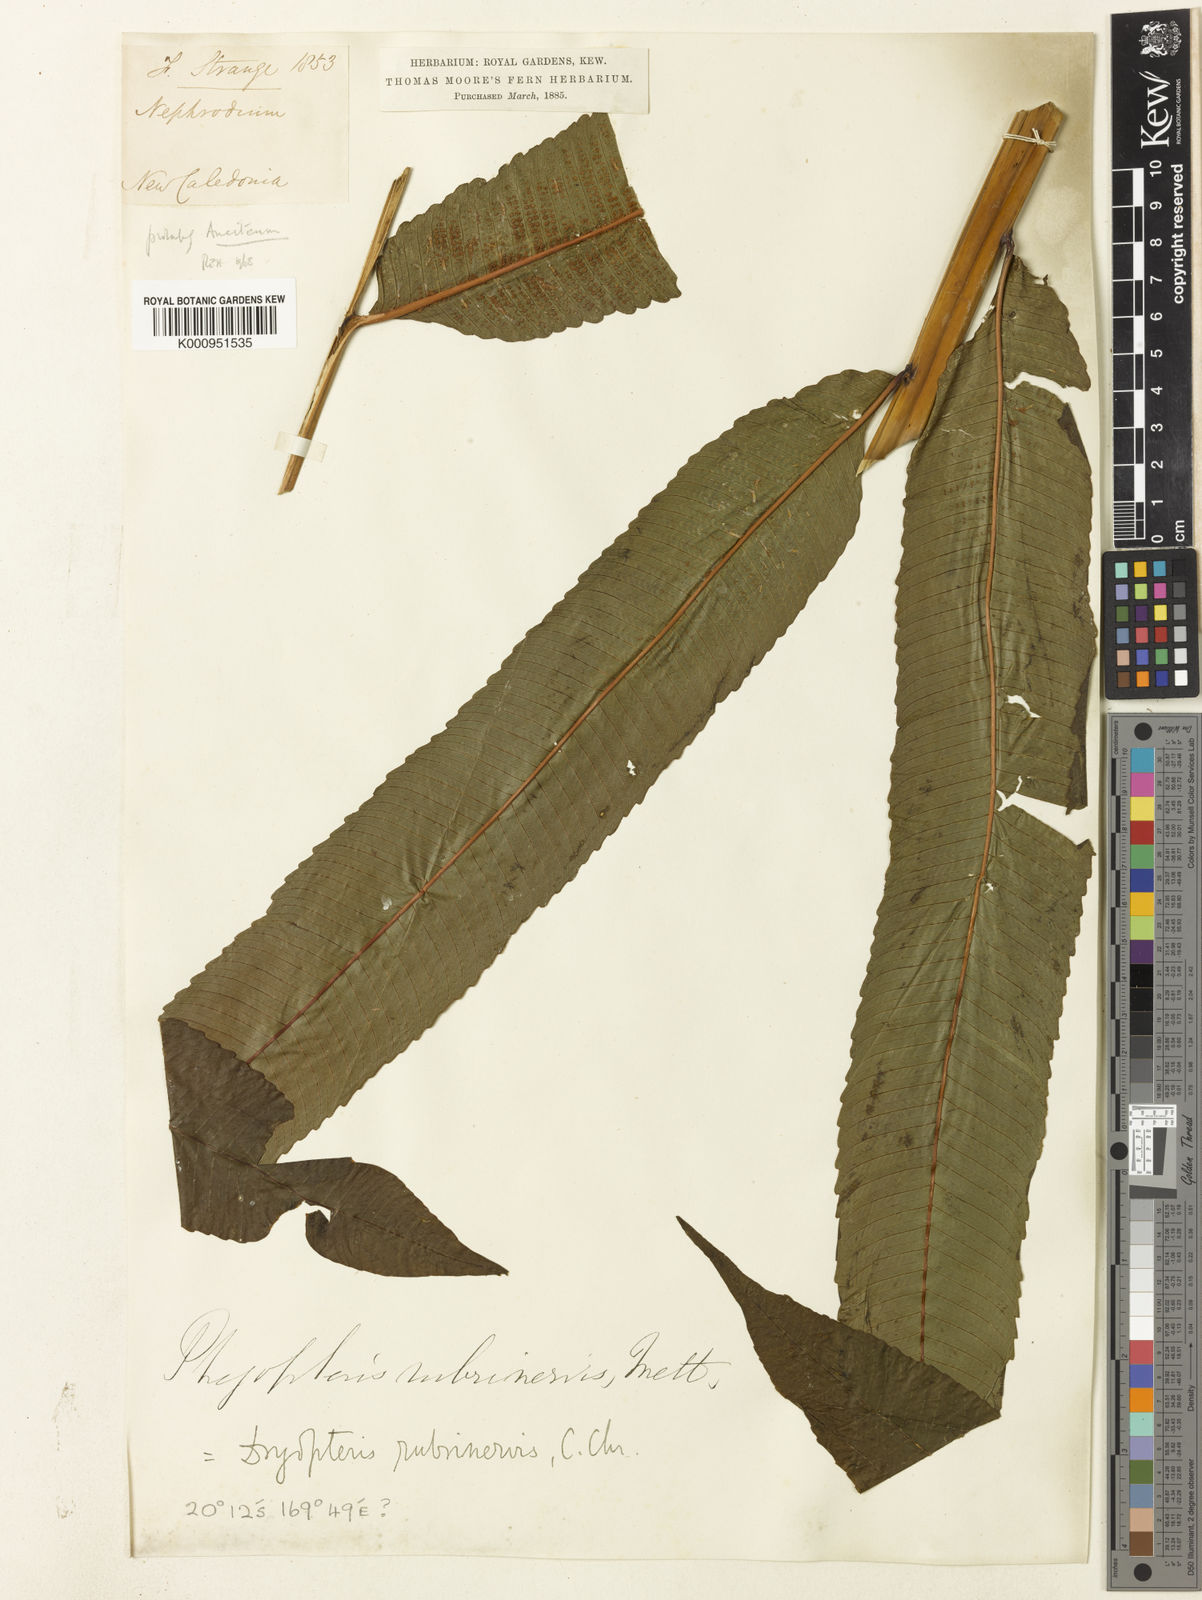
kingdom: Plantae
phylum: Tracheophyta
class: Polypodiopsida
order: Polypodiales
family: Thelypteridaceae
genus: Pronephrium
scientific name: Pronephrium
